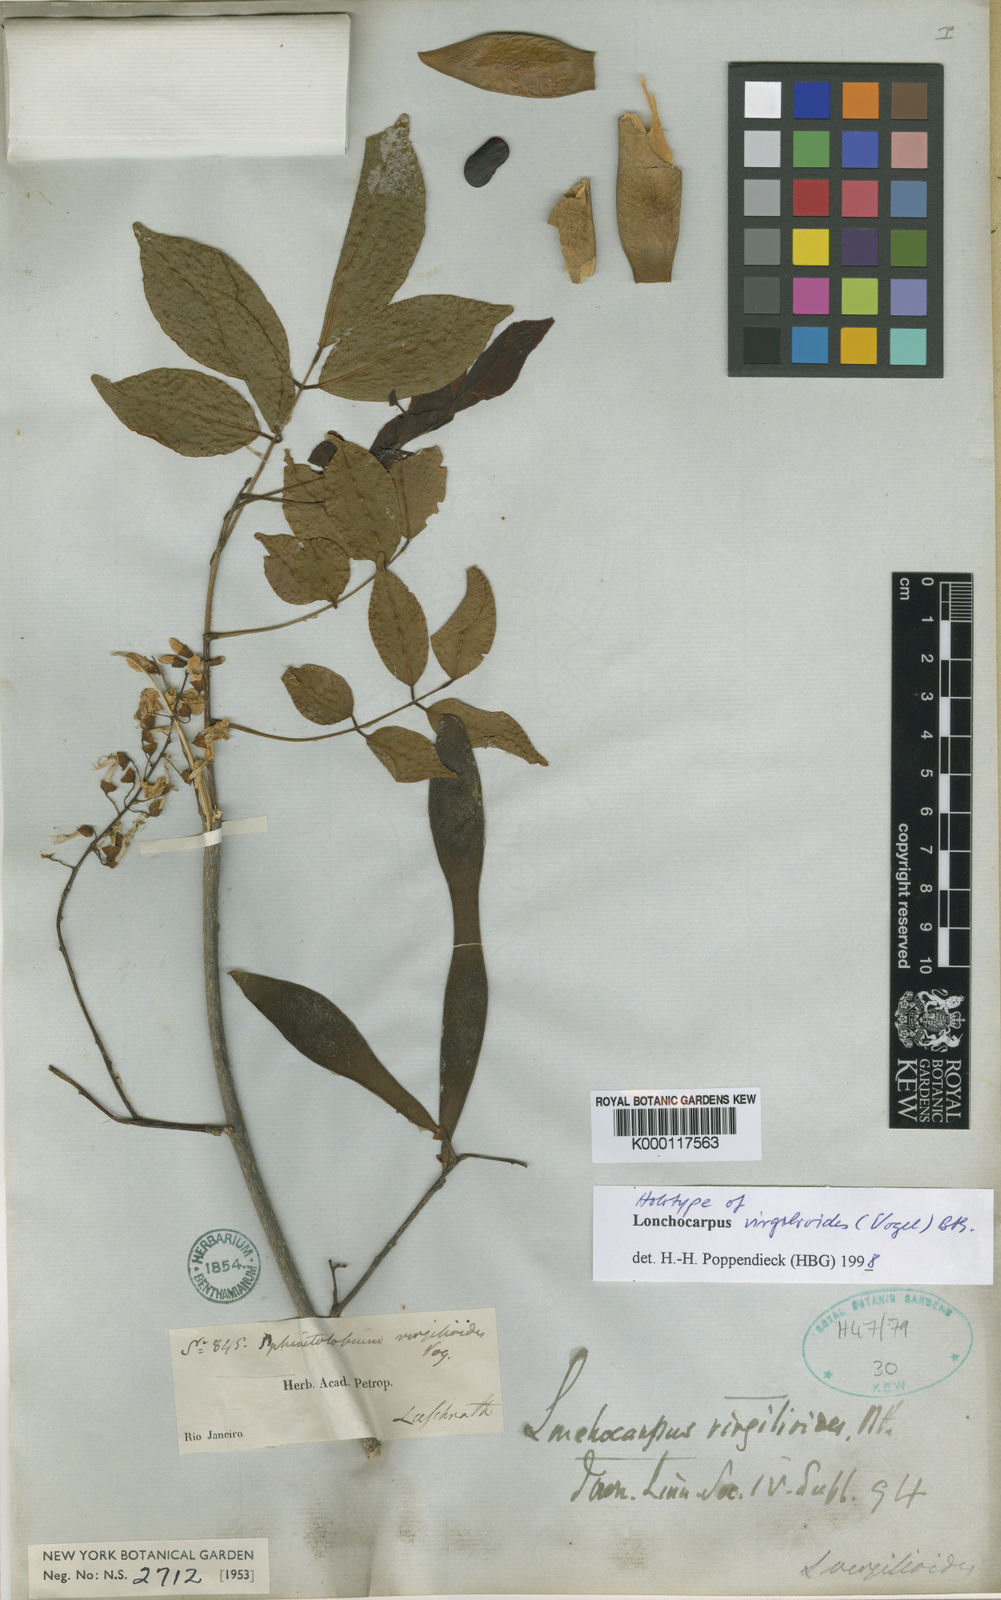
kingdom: Plantae
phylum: Tracheophyta
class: Magnoliopsida
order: Fabales
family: Fabaceae
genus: Muellera
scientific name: Muellera virgilioides
